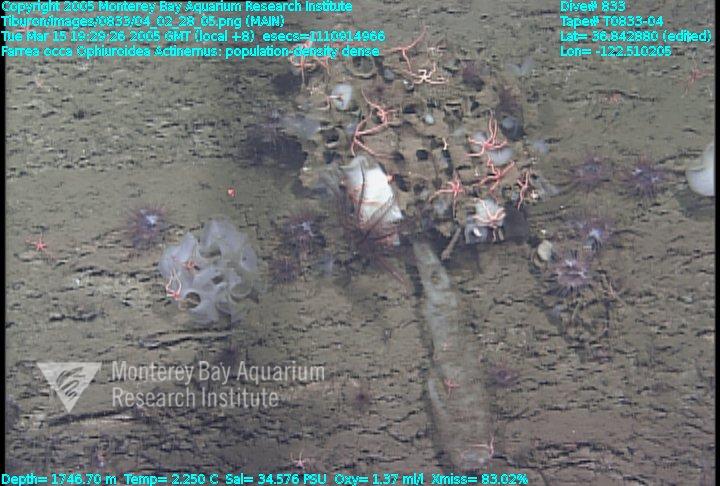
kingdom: Animalia
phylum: Porifera
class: Hexactinellida
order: Sceptrulophora
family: Farreidae
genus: Farrea
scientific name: Farrea occa
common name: Reversed glass sponge
